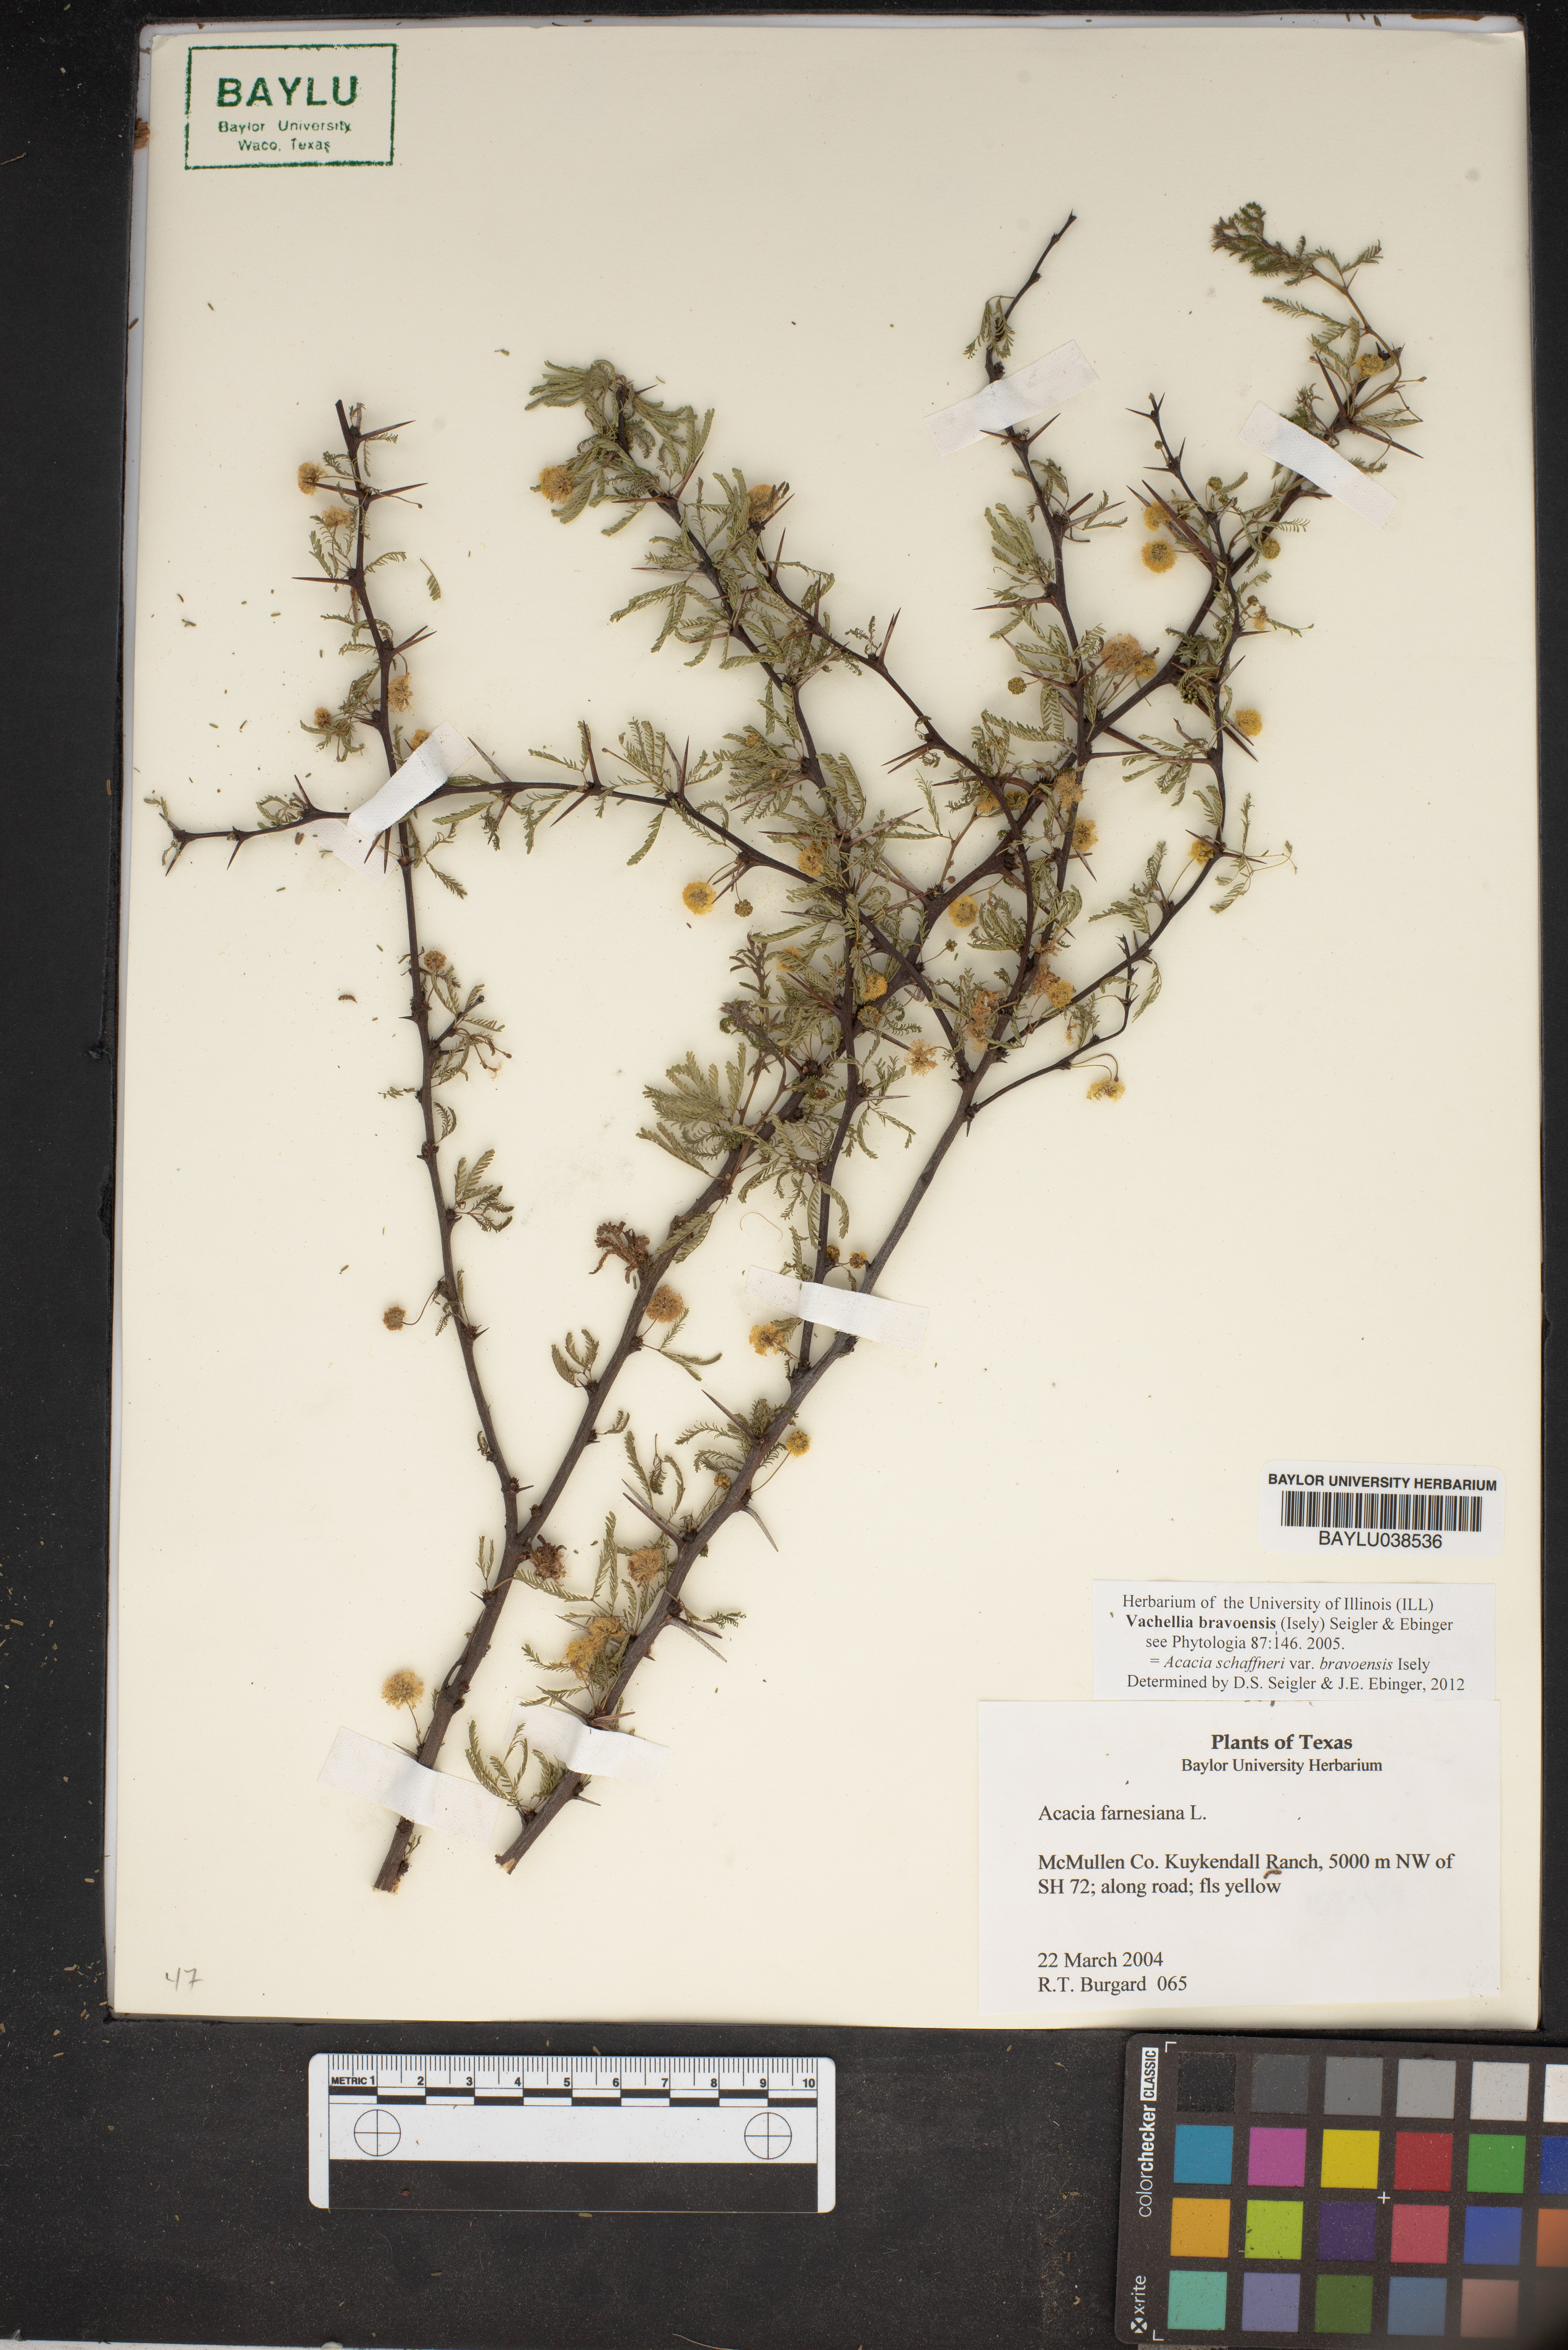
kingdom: Plantae
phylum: Tracheophyta
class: Magnoliopsida
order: Fabales
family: Fabaceae
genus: Vachellia
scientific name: Vachellia farnesiana
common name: Sweet acacia
